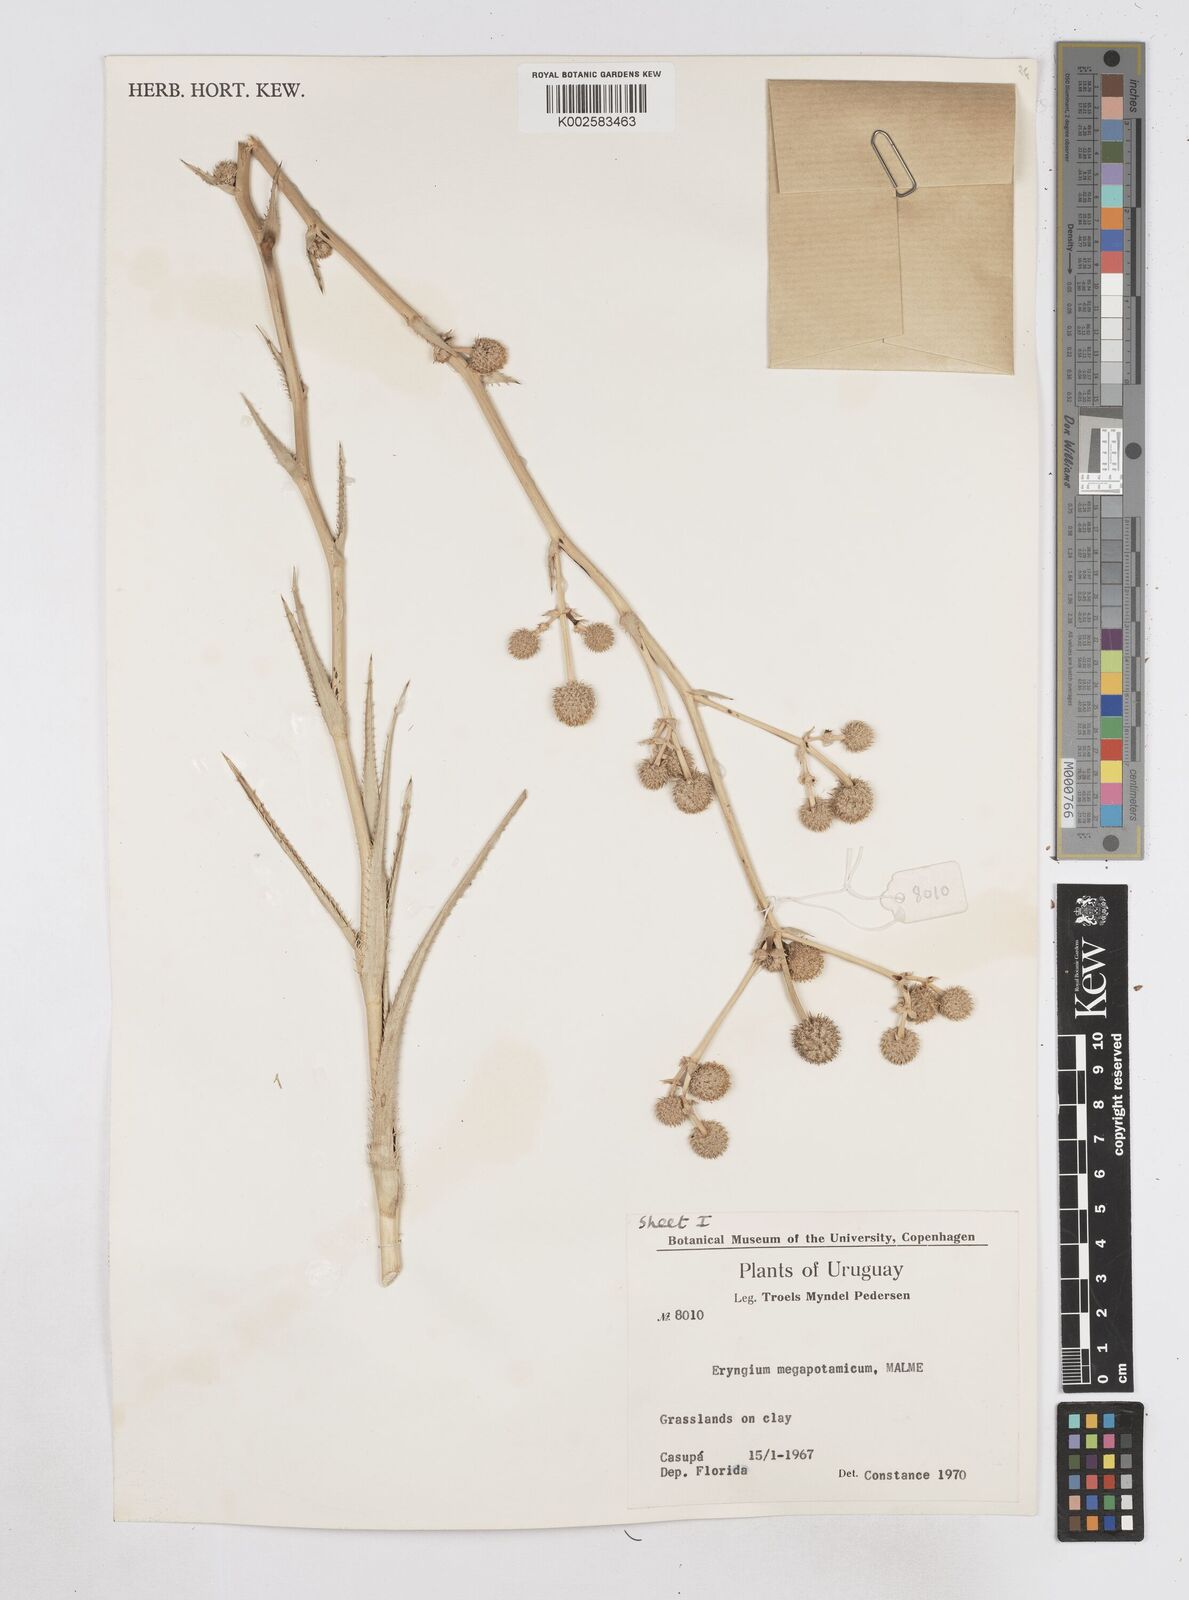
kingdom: Plantae
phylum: Tracheophyta
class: Magnoliopsida
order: Apiales
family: Apiaceae
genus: Eryngium
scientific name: Eryngium megapotamicum
